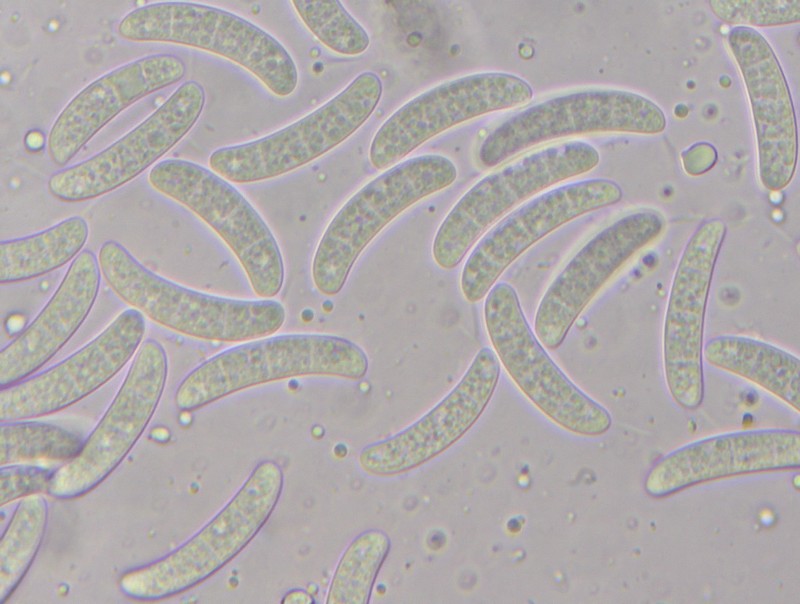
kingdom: Fungi
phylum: Ascomycota
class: Sordariomycetes
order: Chaetosphaeriales
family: Chaetosphaeriaceae
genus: Menispora
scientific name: Menispora glauca
